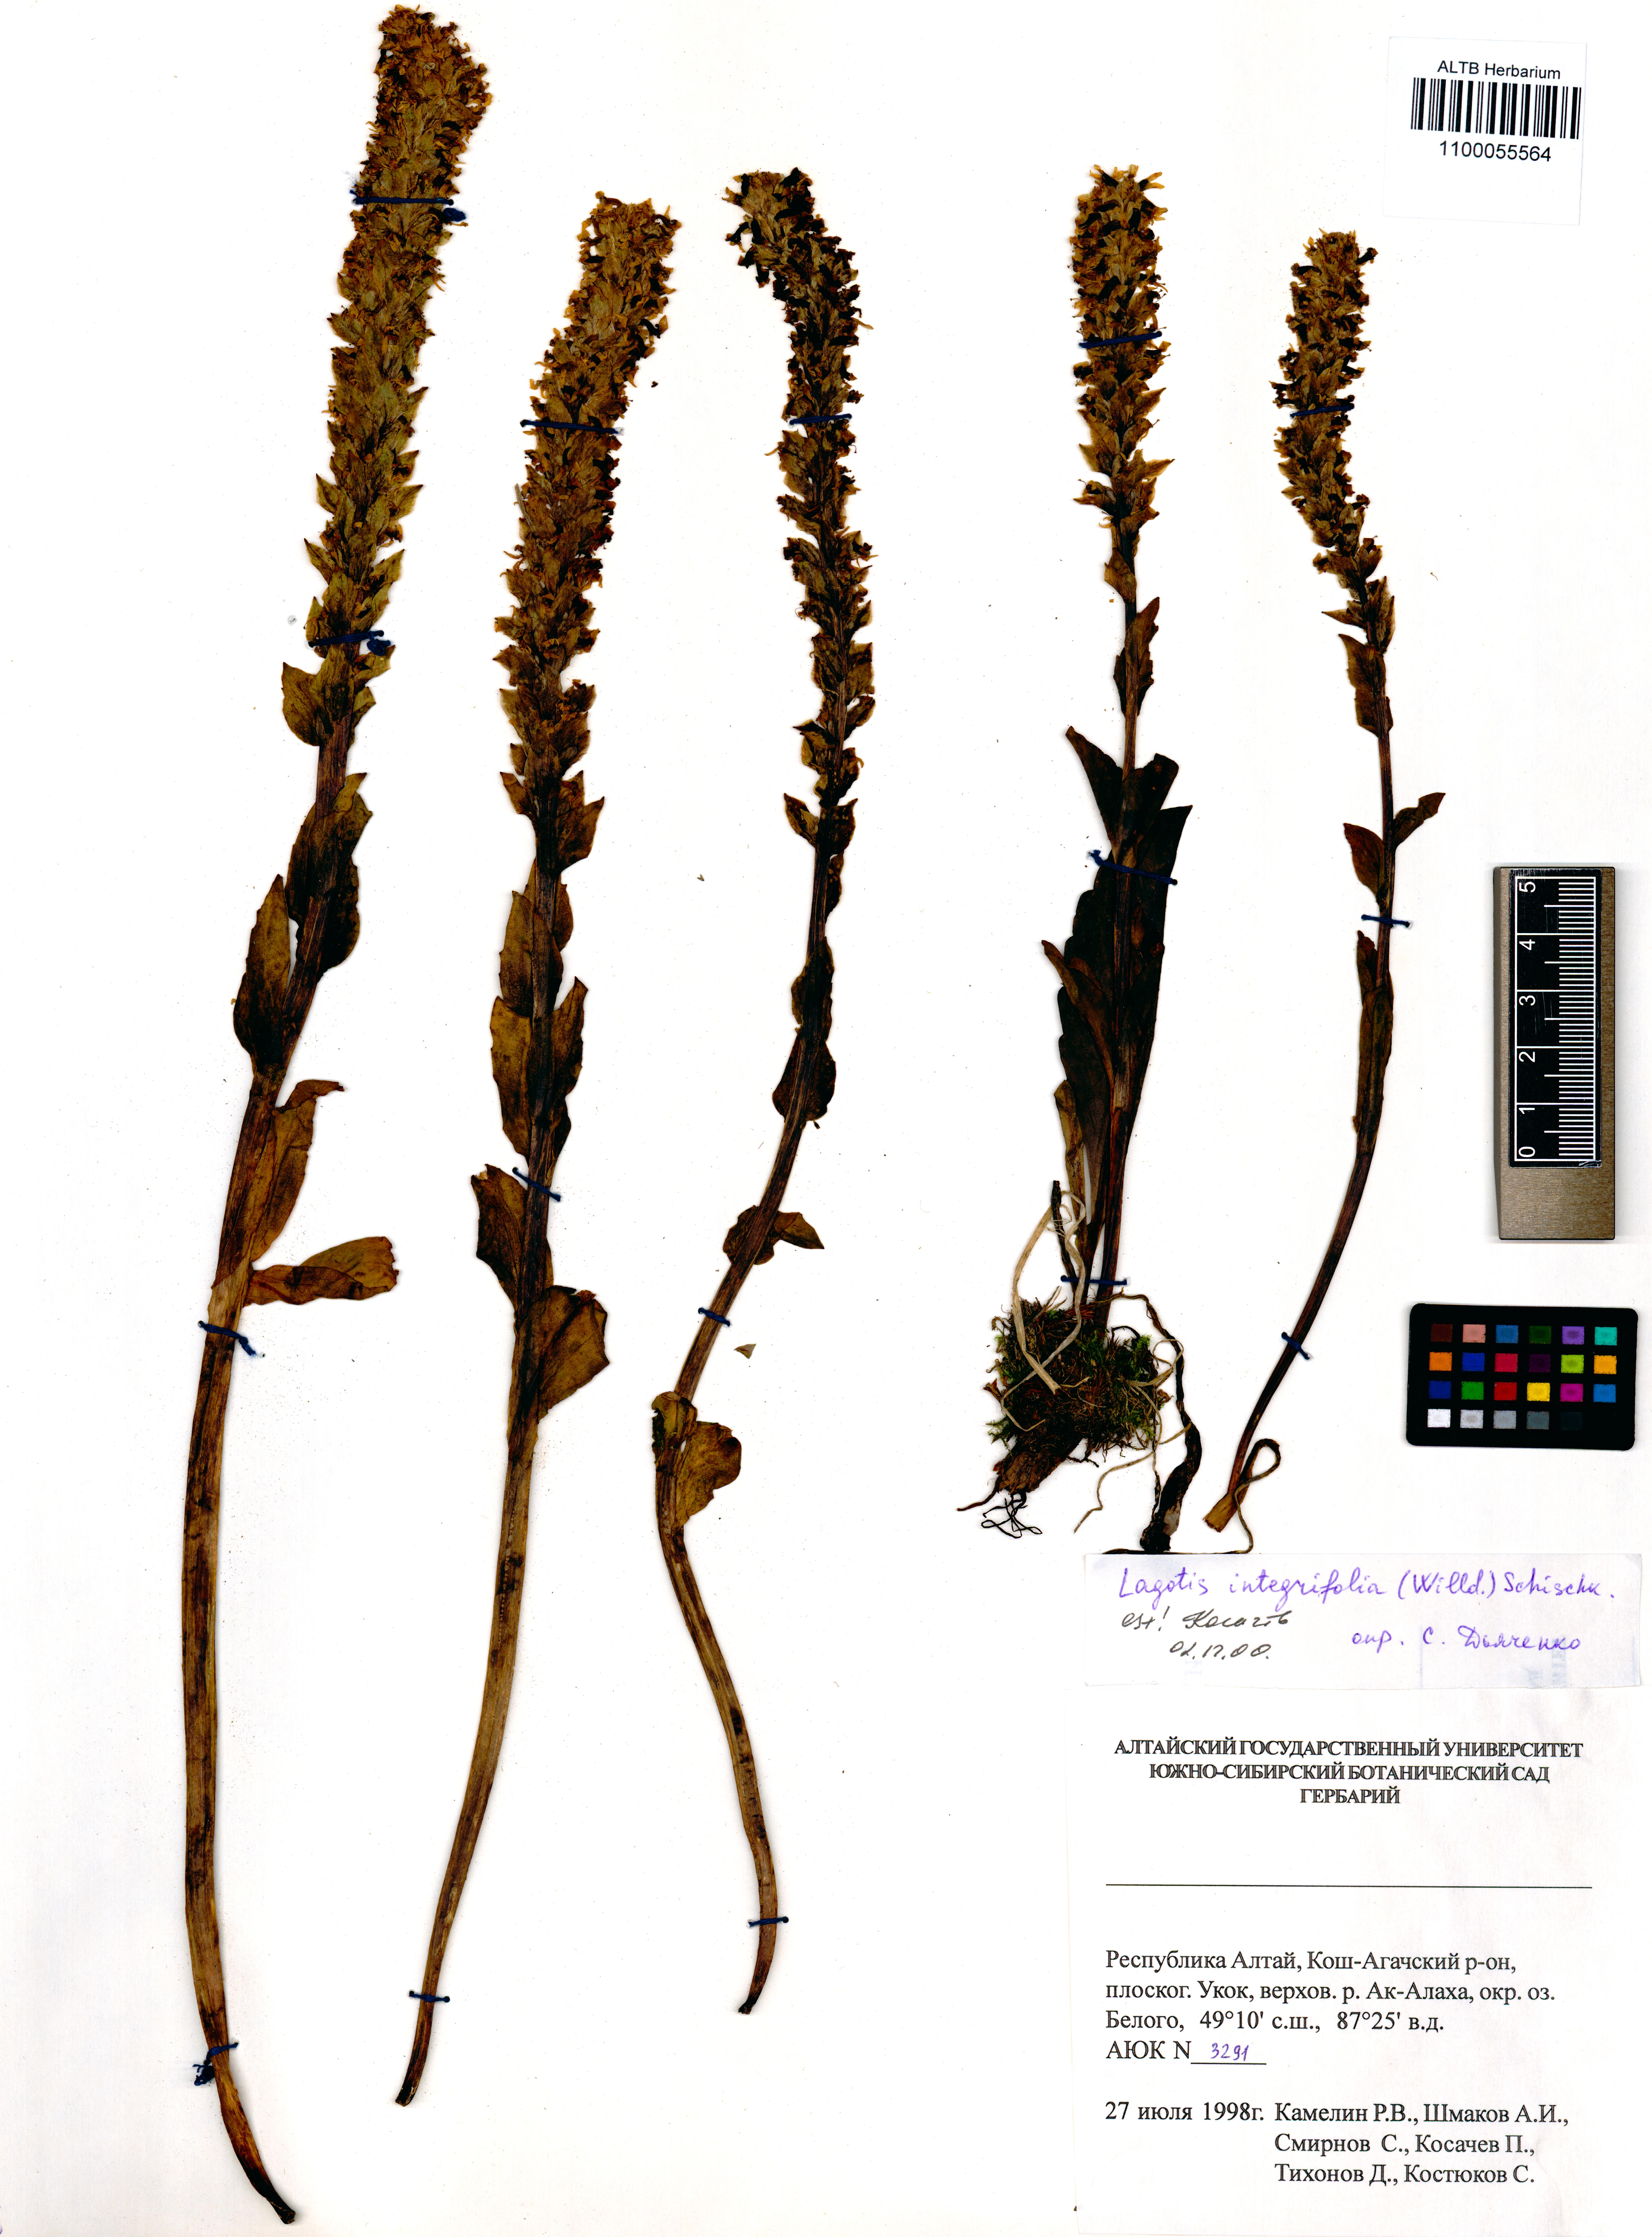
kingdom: Plantae
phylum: Tracheophyta
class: Magnoliopsida
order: Lamiales
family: Plantaginaceae
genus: Lagotis
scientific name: Lagotis integrifolia
